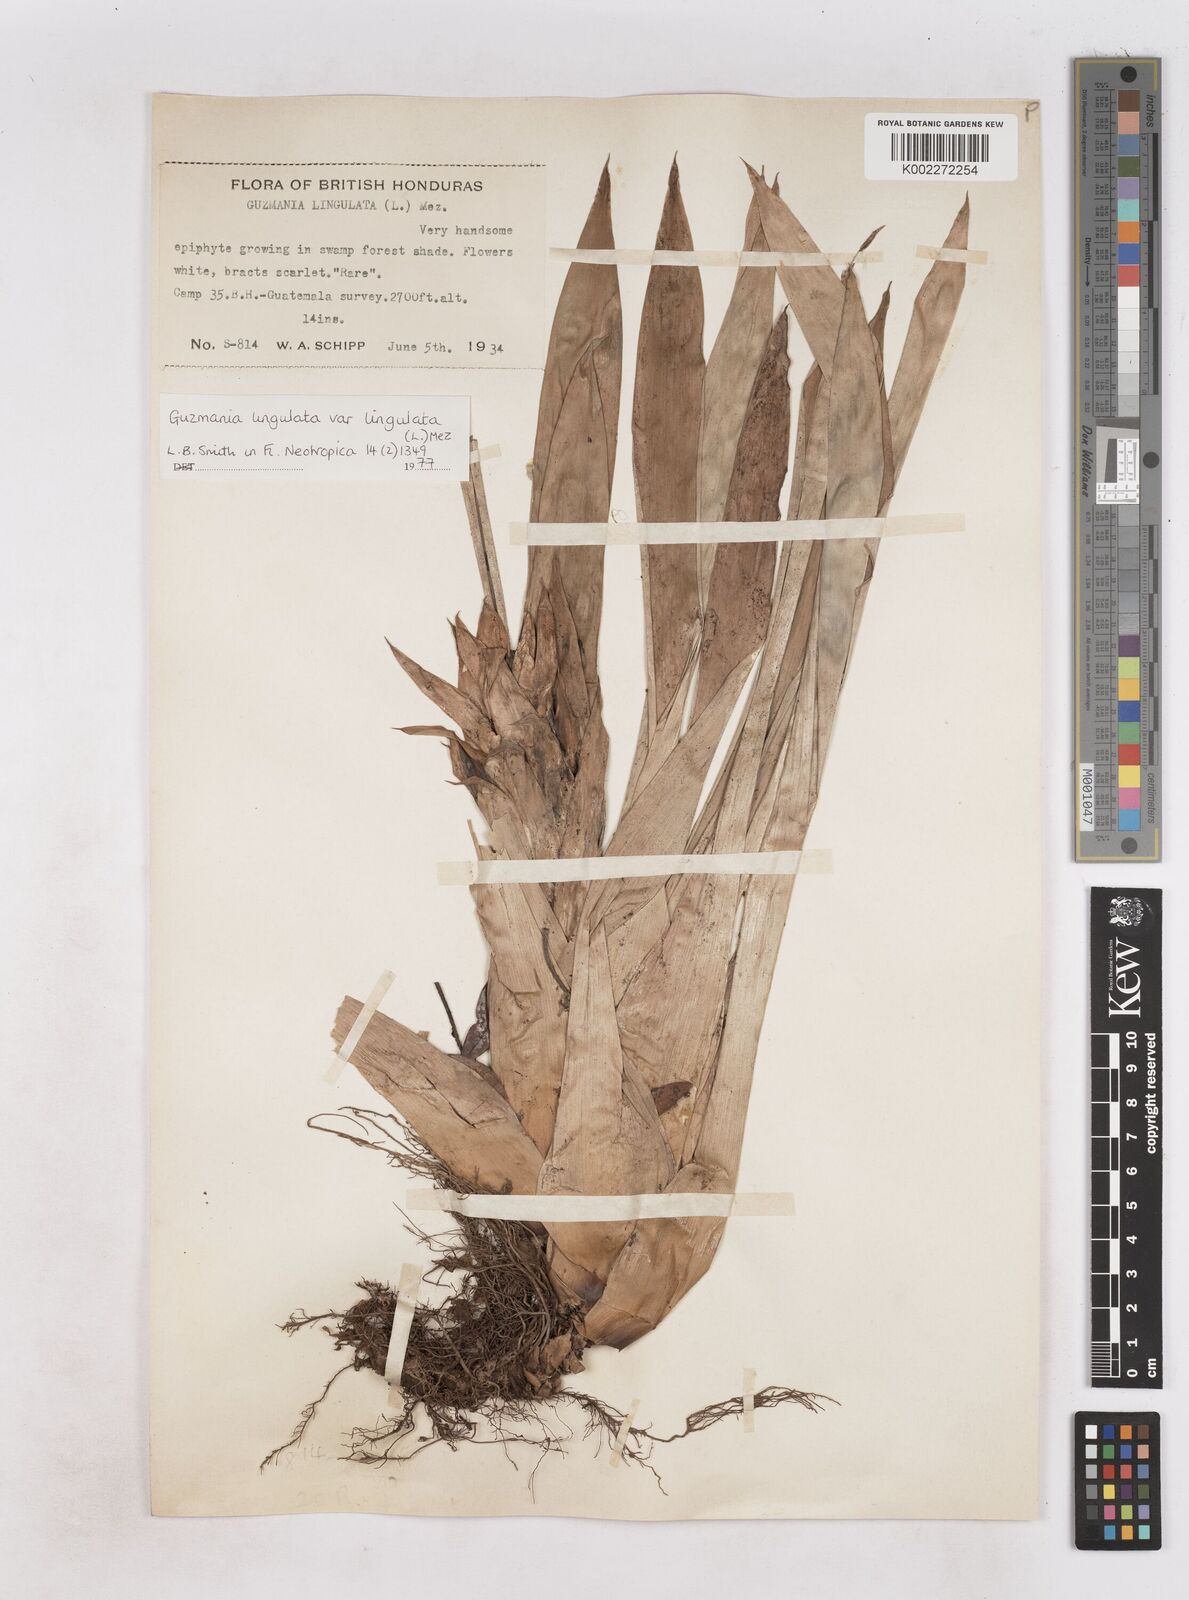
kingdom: Plantae
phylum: Tracheophyta
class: Liliopsida
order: Poales
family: Bromeliaceae
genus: Guzmania
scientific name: Guzmania lingulata
